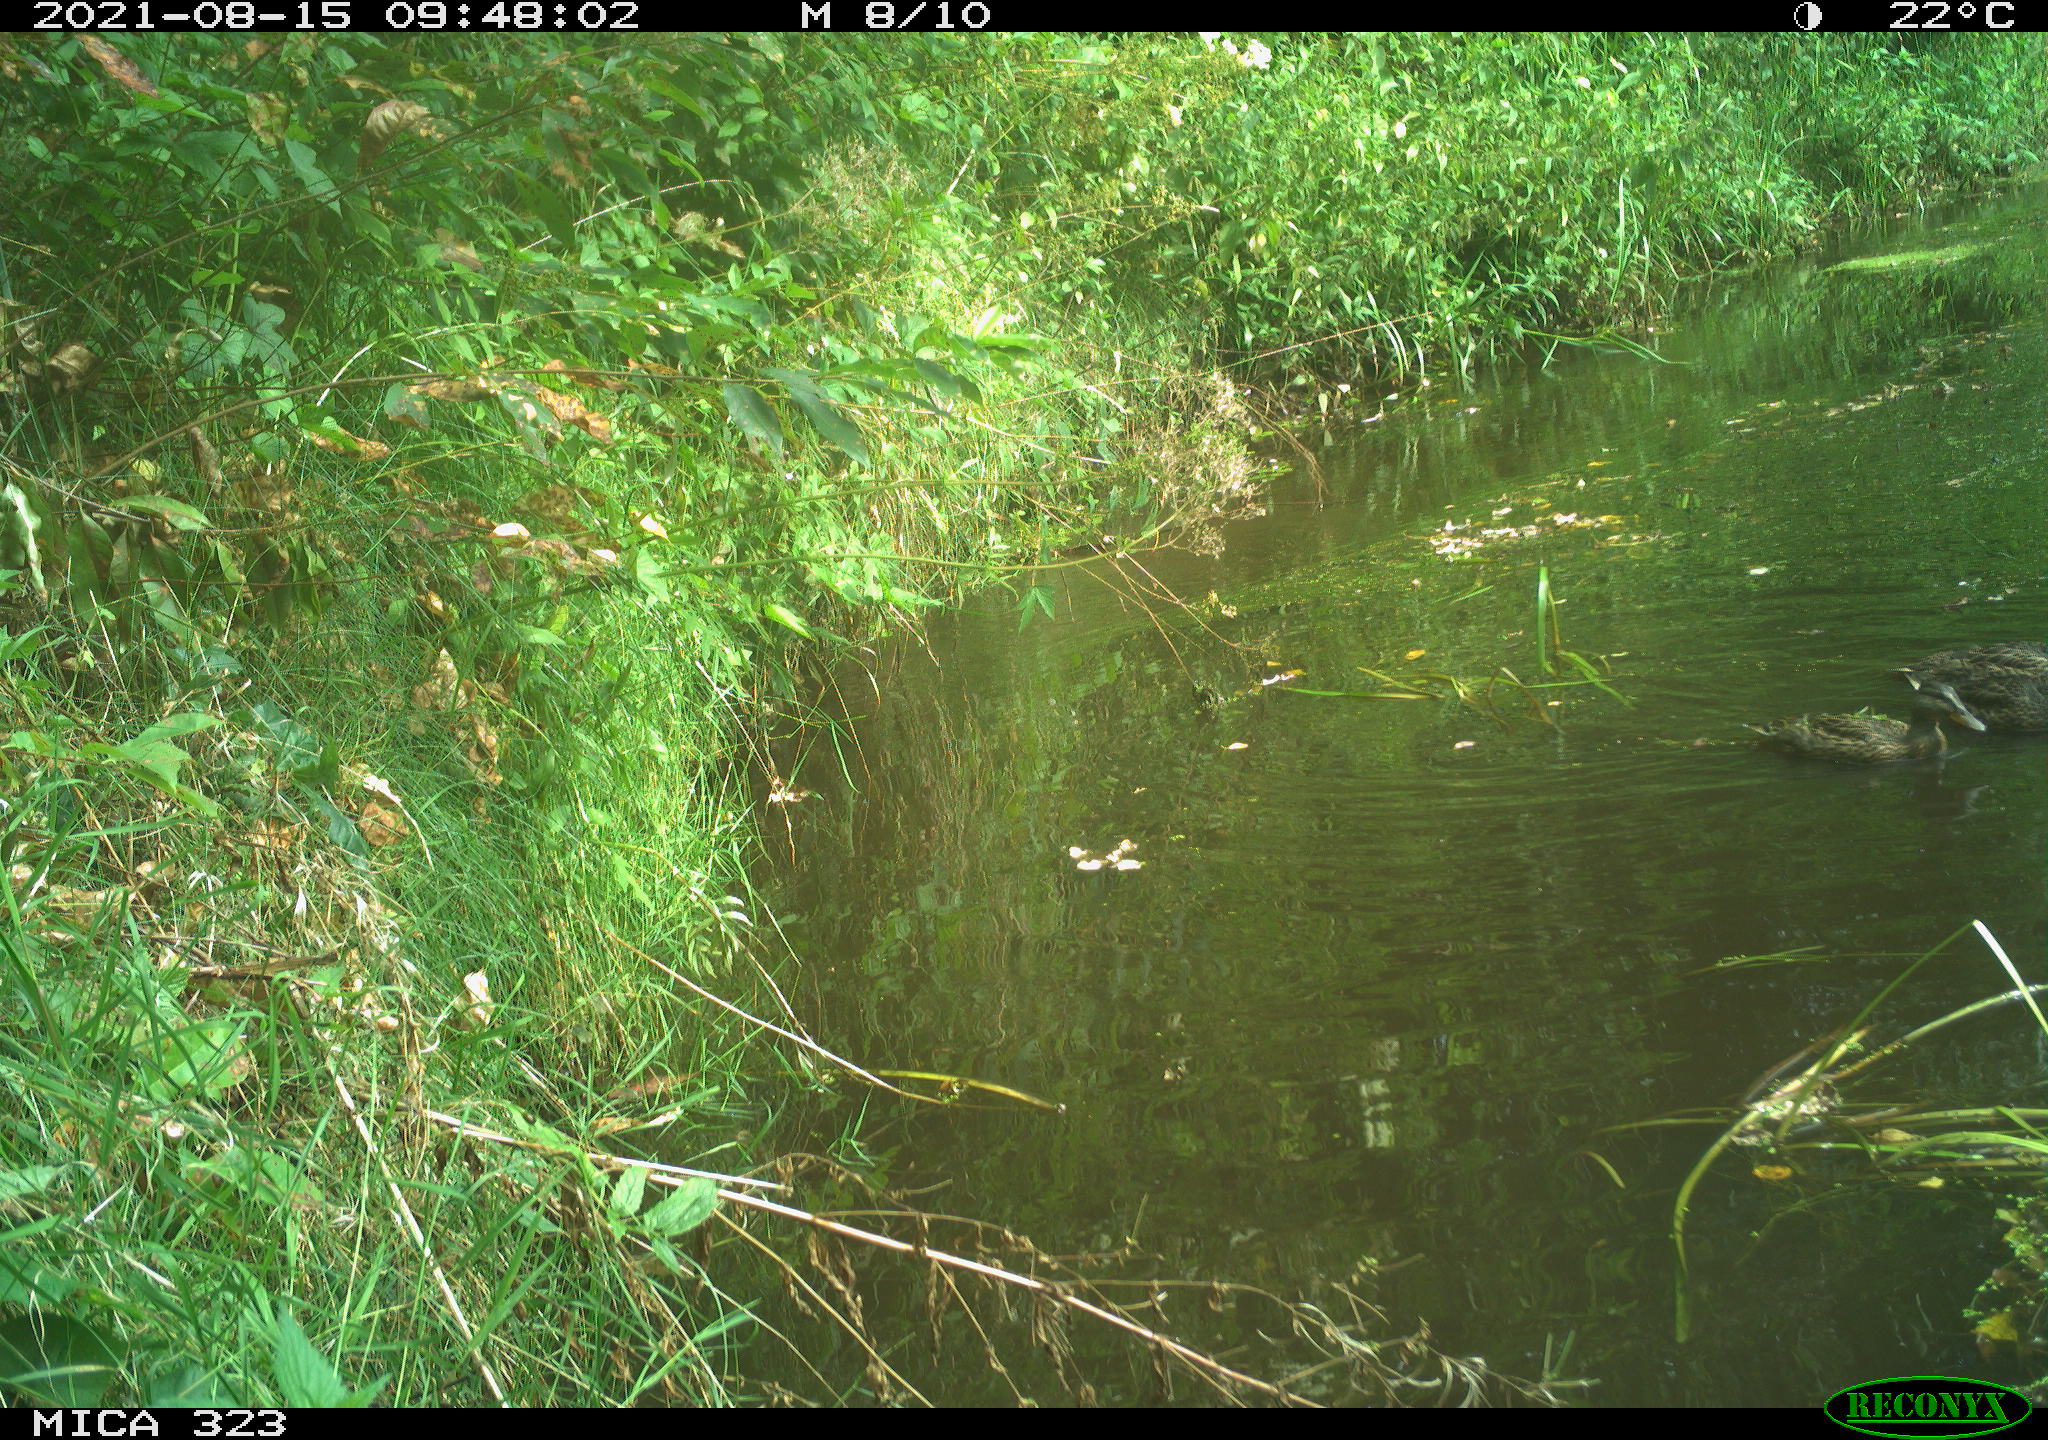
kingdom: Animalia
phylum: Chordata
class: Aves
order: Anseriformes
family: Anatidae
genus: Anas
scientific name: Anas platyrhynchos
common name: Mallard
